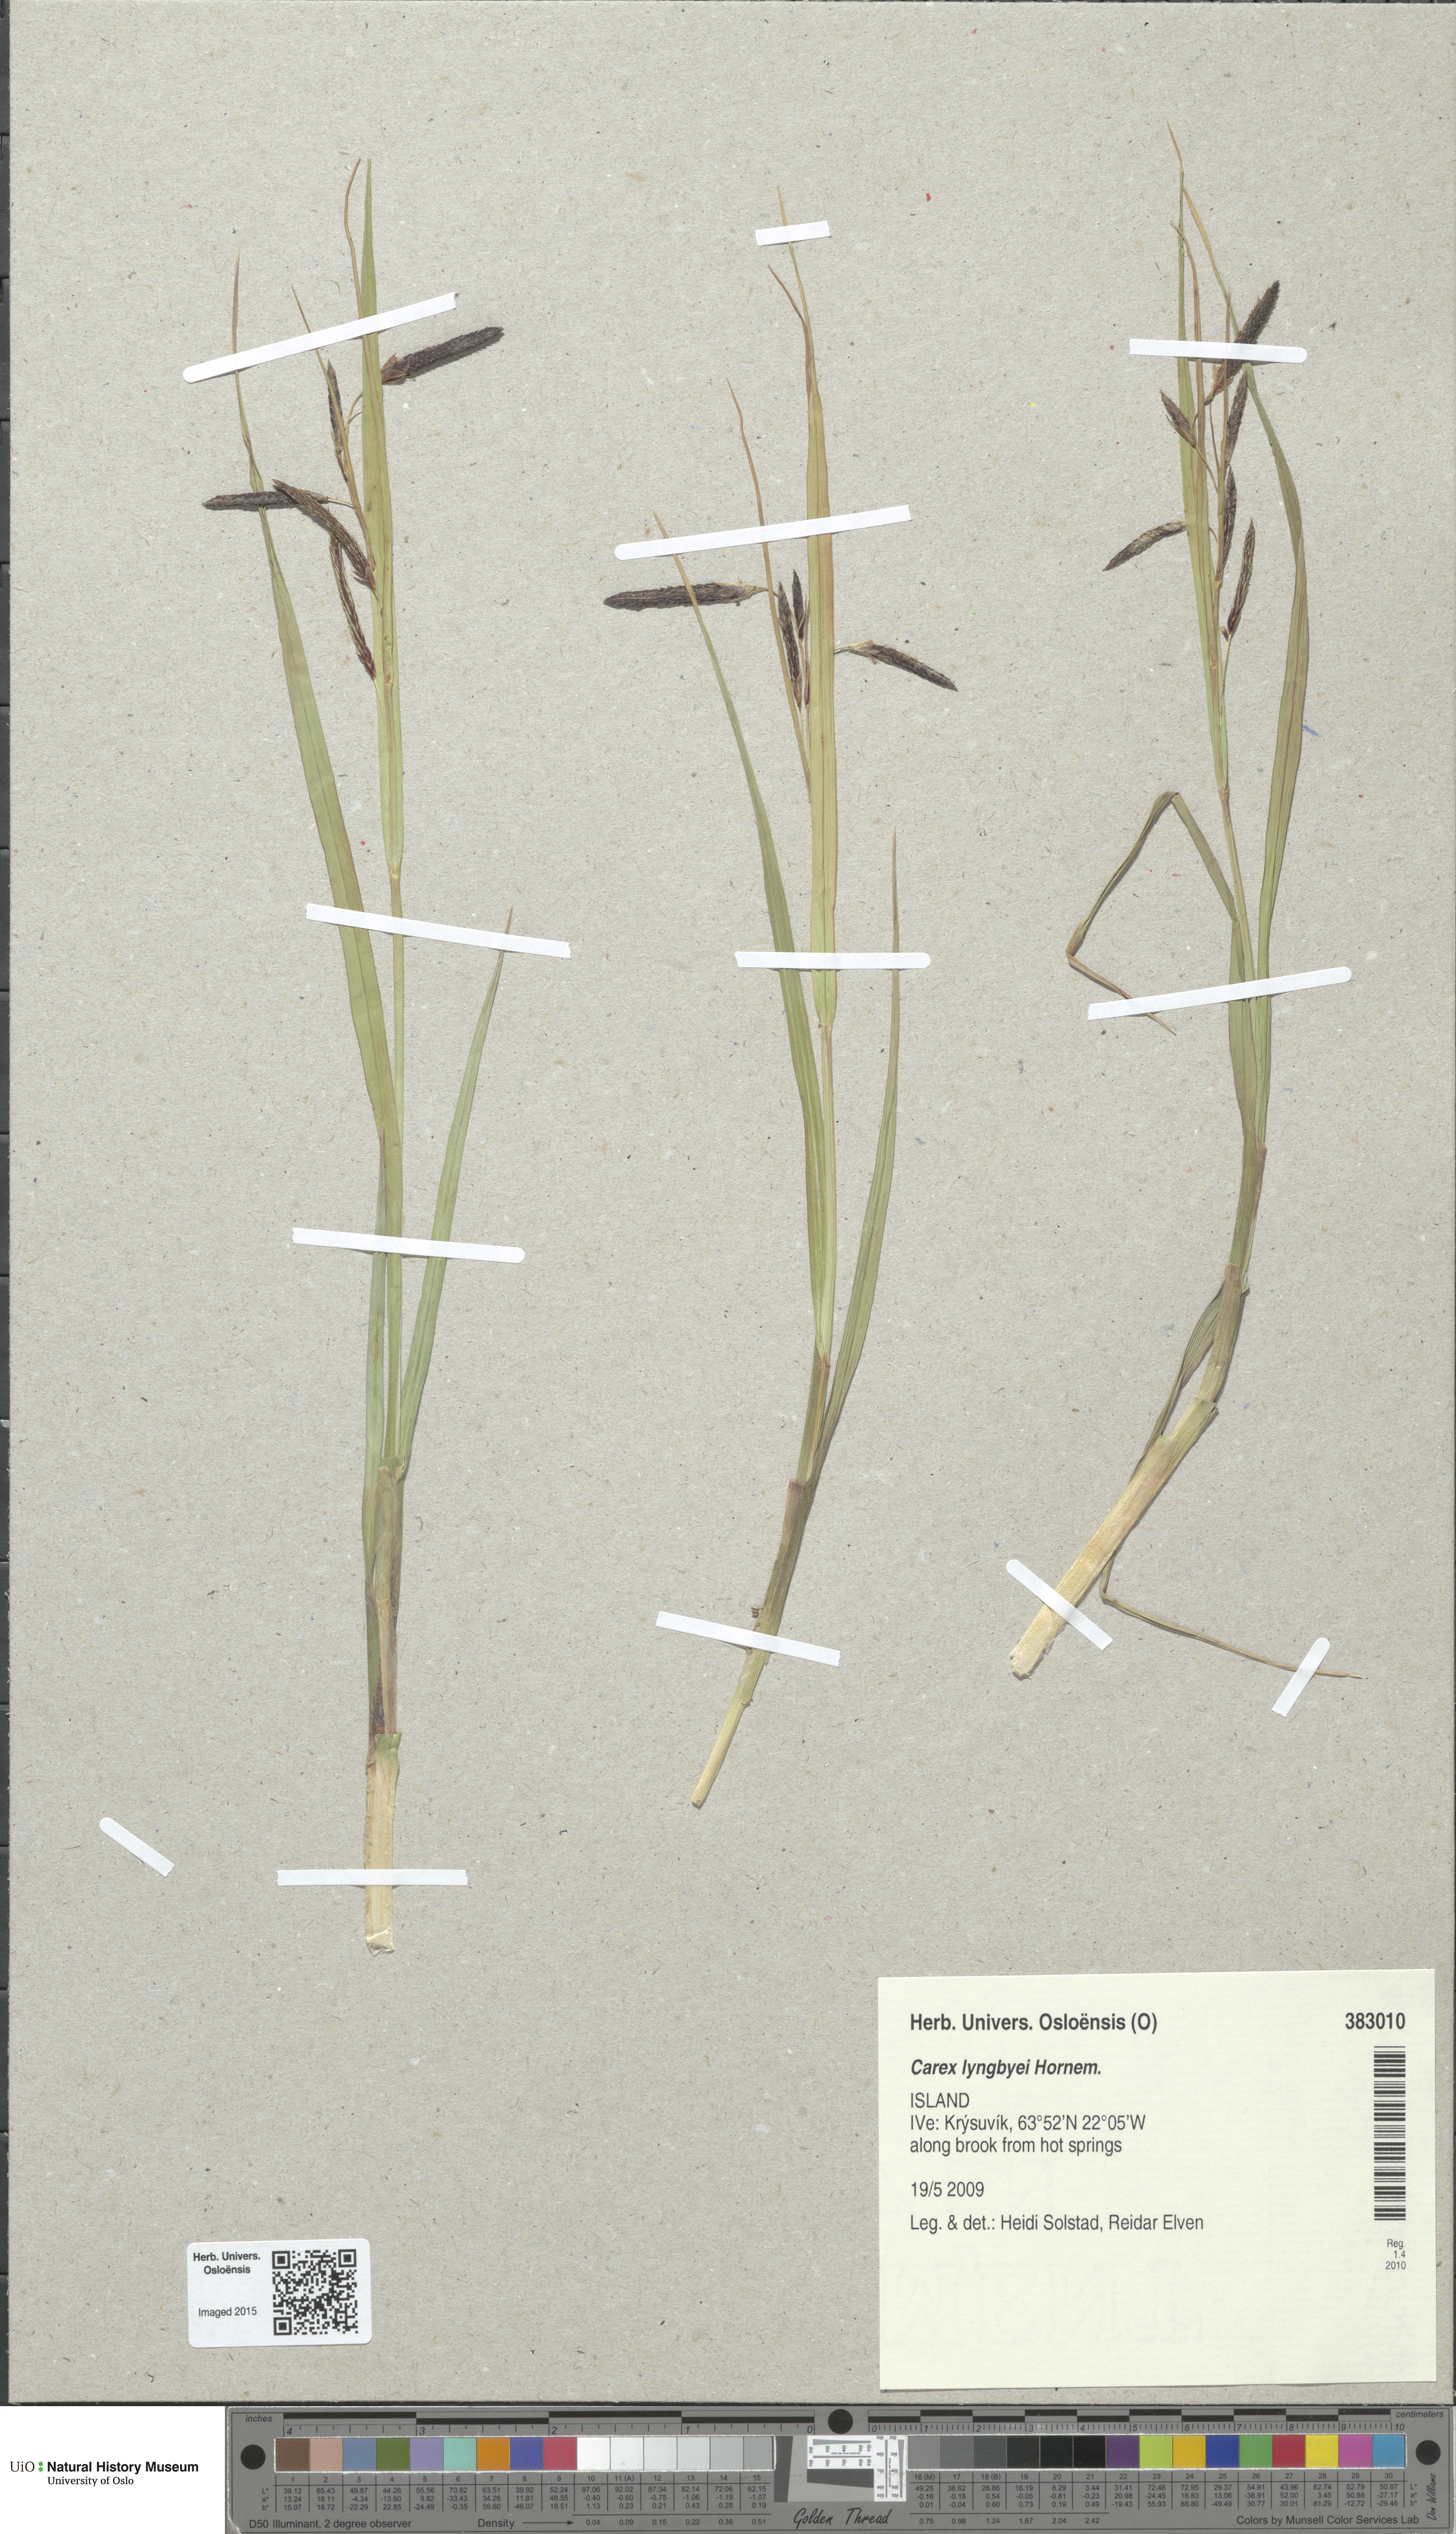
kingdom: Plantae
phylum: Tracheophyta
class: Liliopsida
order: Poales
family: Cyperaceae
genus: Carex
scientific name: Carex lyngbyei
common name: Lyngbye's sedge
